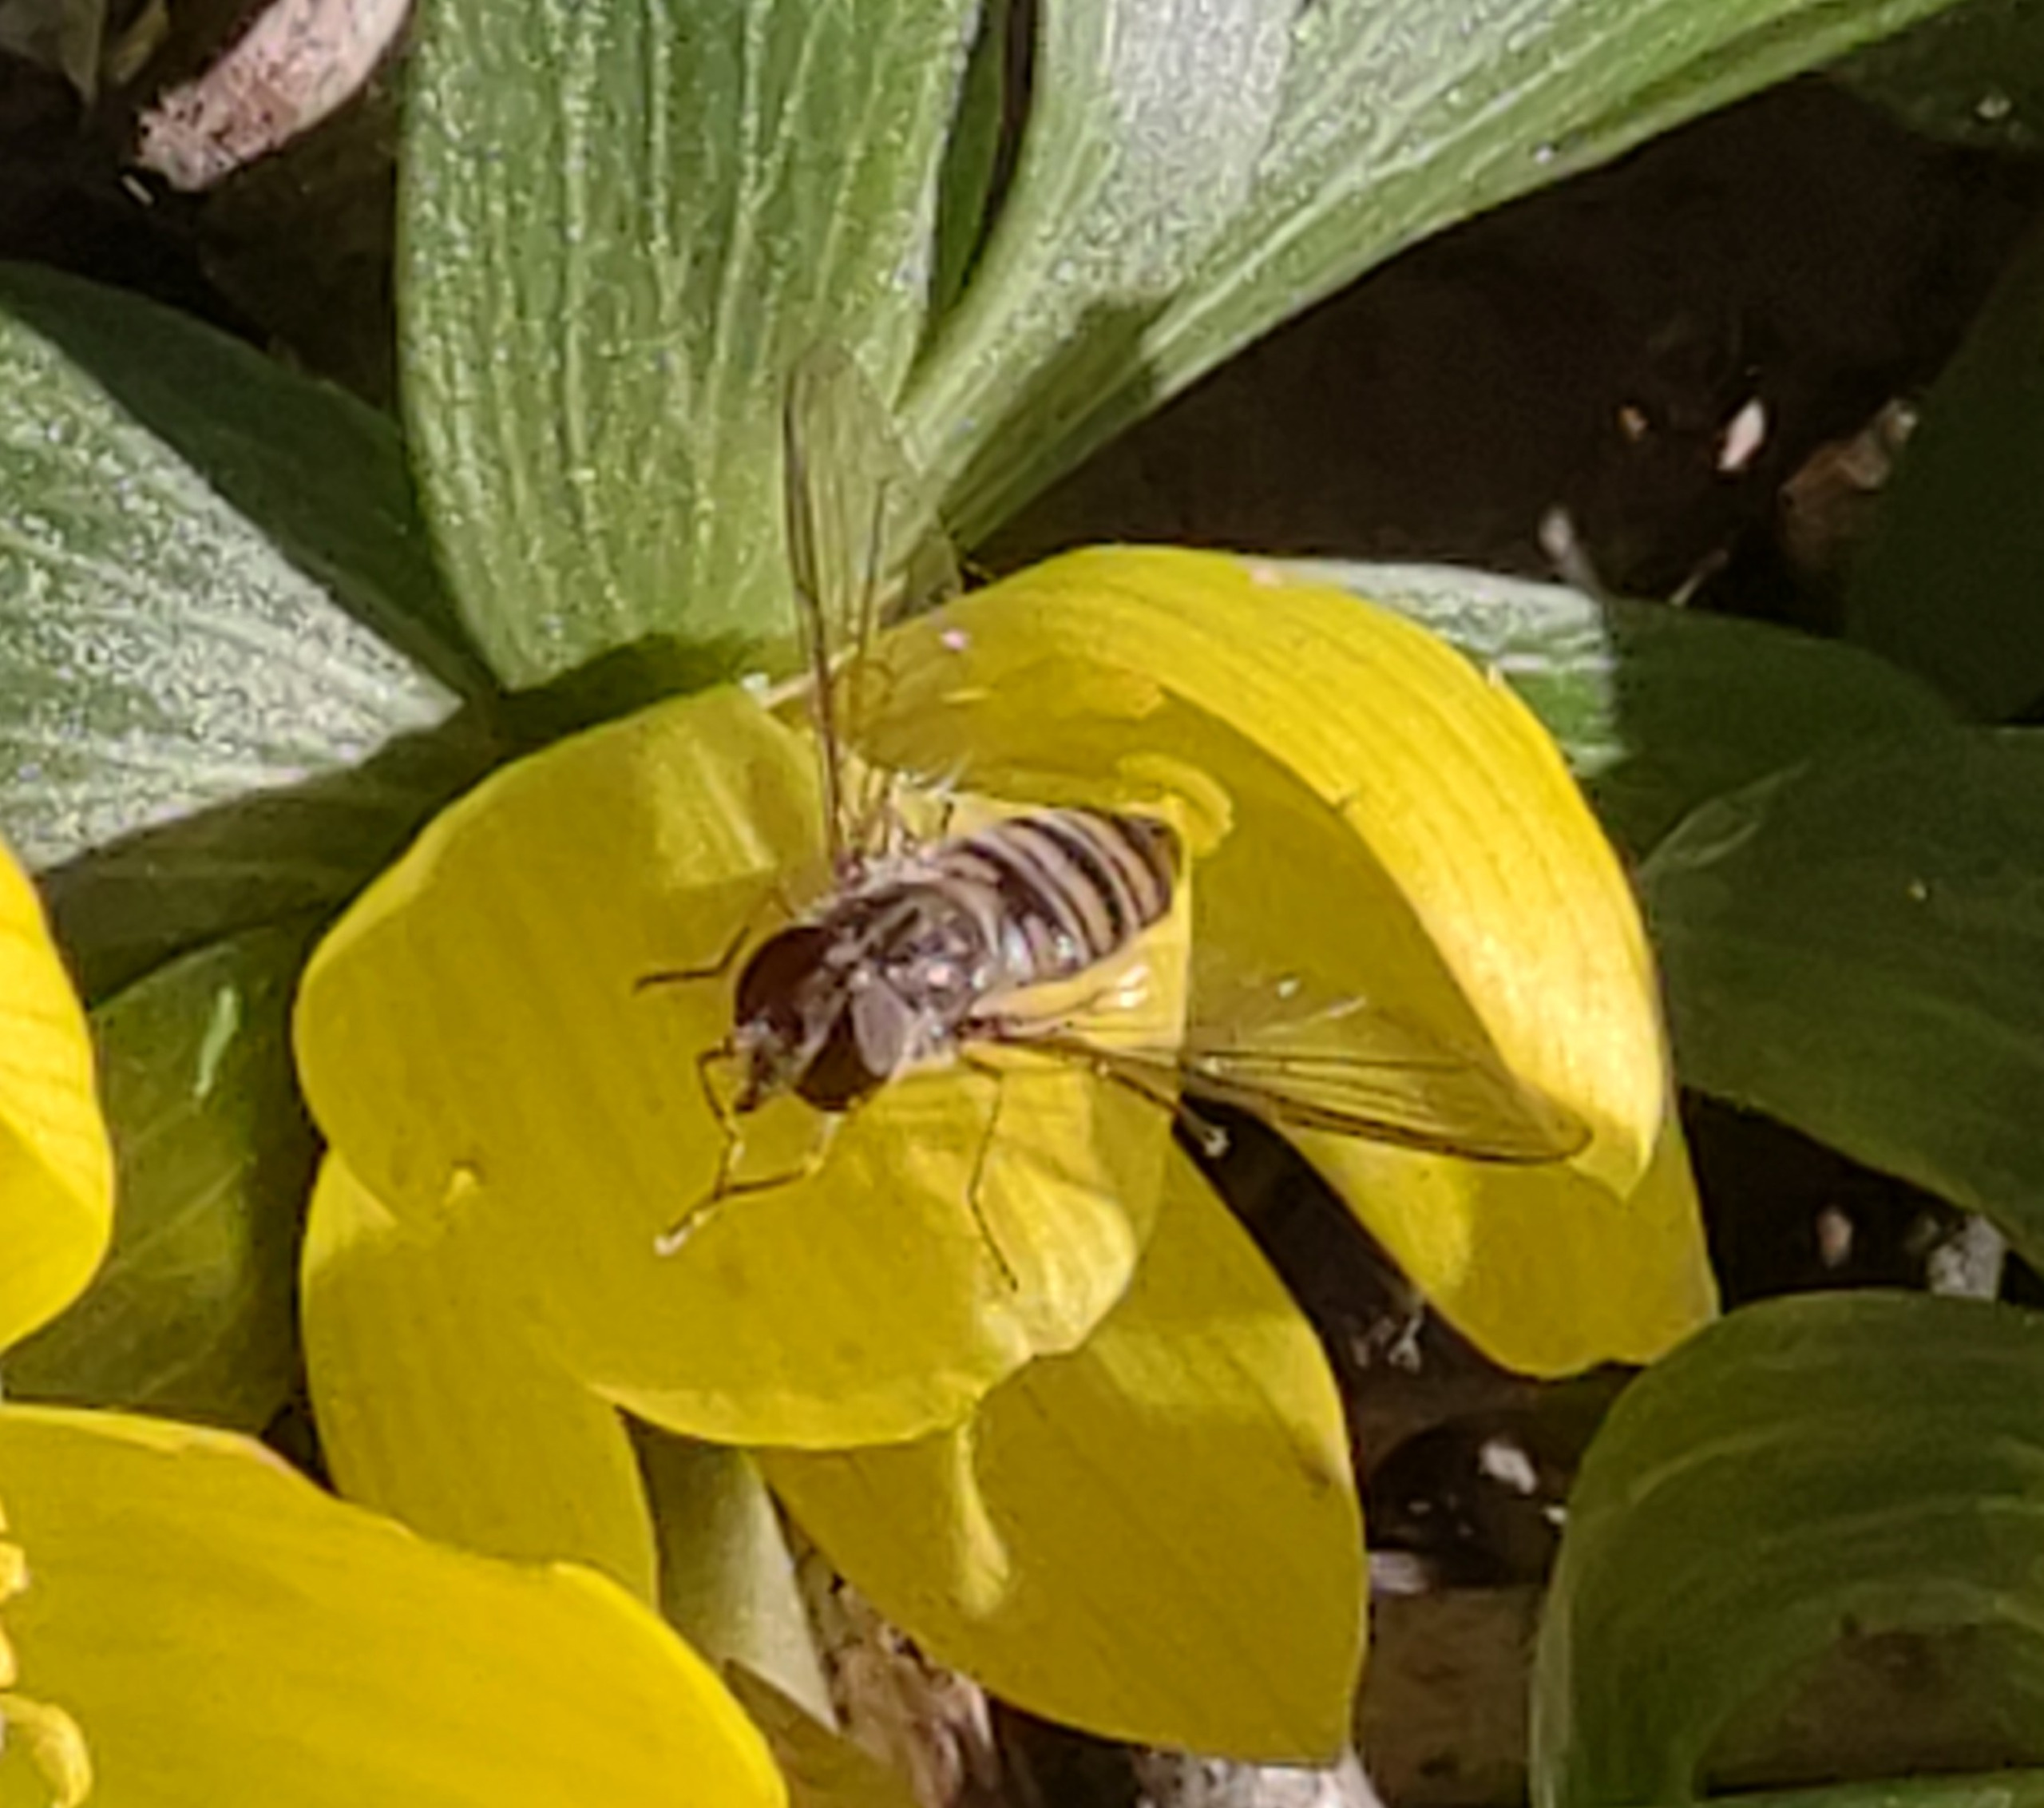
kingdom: Animalia
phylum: Arthropoda
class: Insecta
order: Diptera
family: Syrphidae
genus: Episyrphus
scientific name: Episyrphus balteatus
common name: Dobbeltbåndet svirreflue
